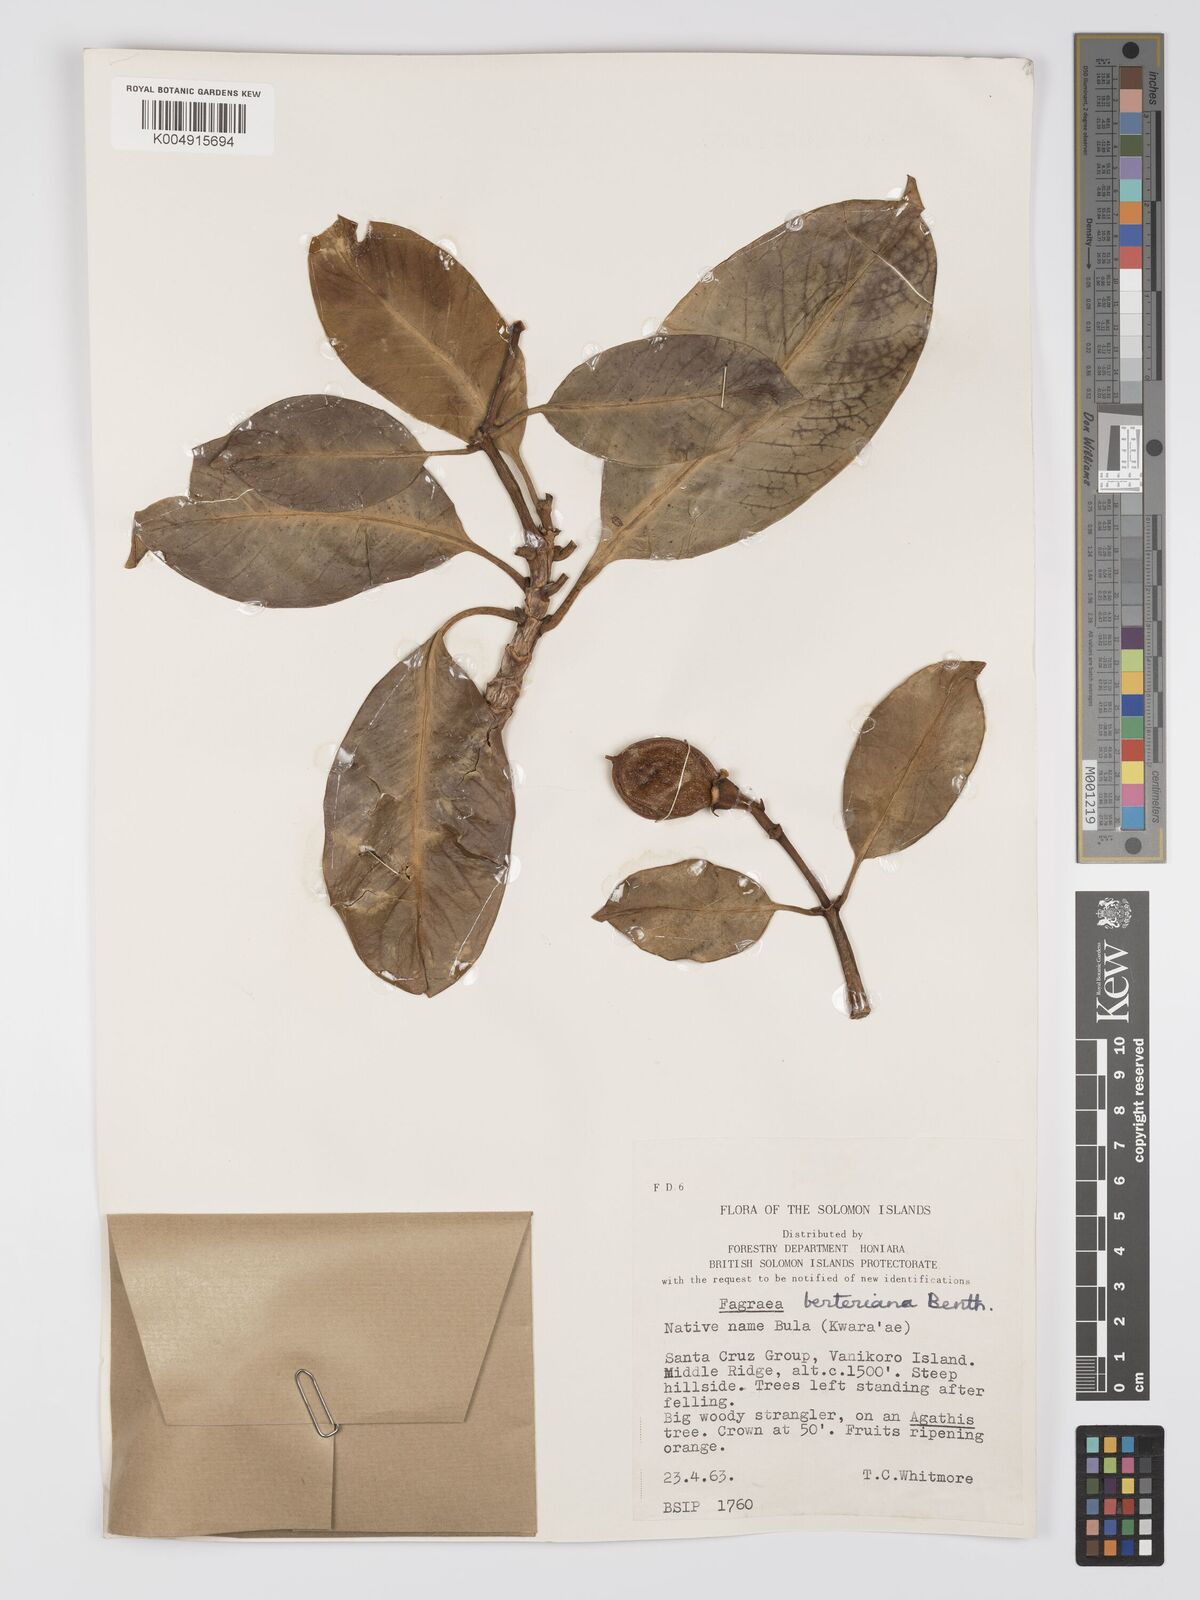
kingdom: Plantae
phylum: Tracheophyta
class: Magnoliopsida
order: Gentianales
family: Gentianaceae
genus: Fagraea
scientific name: Fagraea berteroana
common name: Cape jitta
